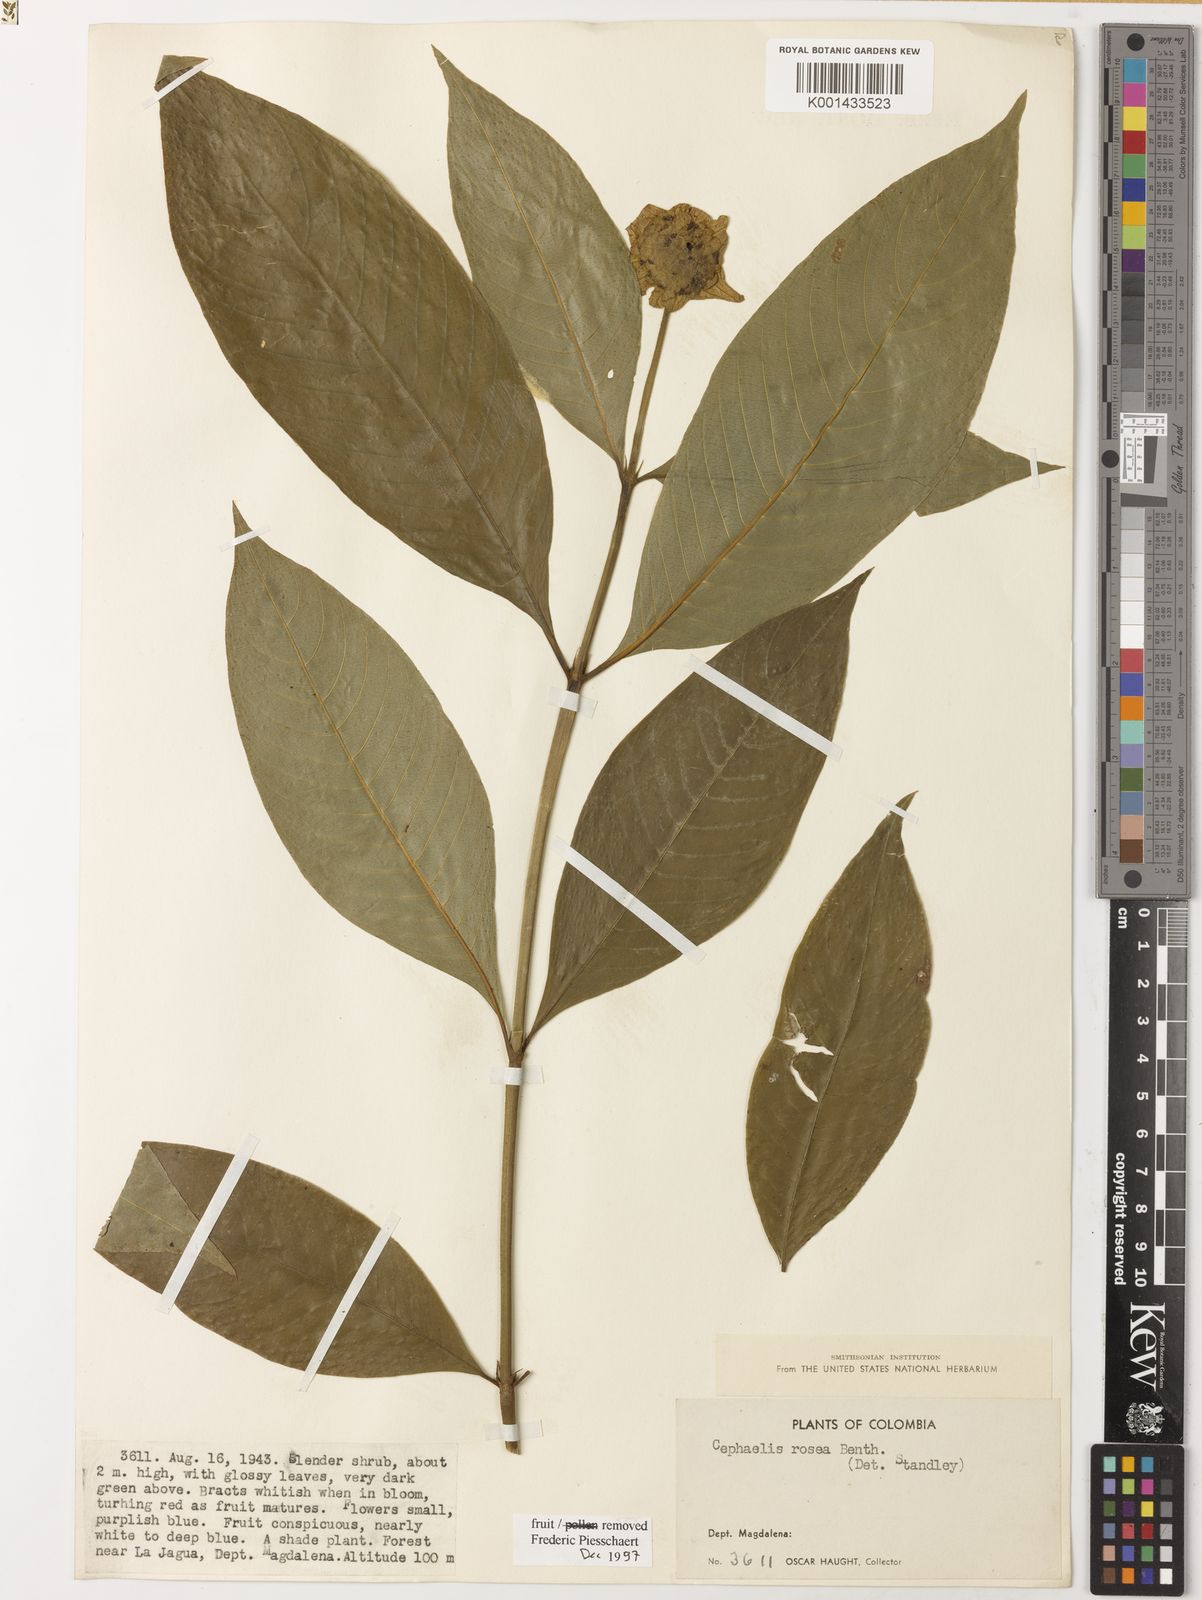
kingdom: Plantae
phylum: Tracheophyta
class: Magnoliopsida
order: Gentianales
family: Rubiaceae
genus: Psychotria
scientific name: Psychotria
